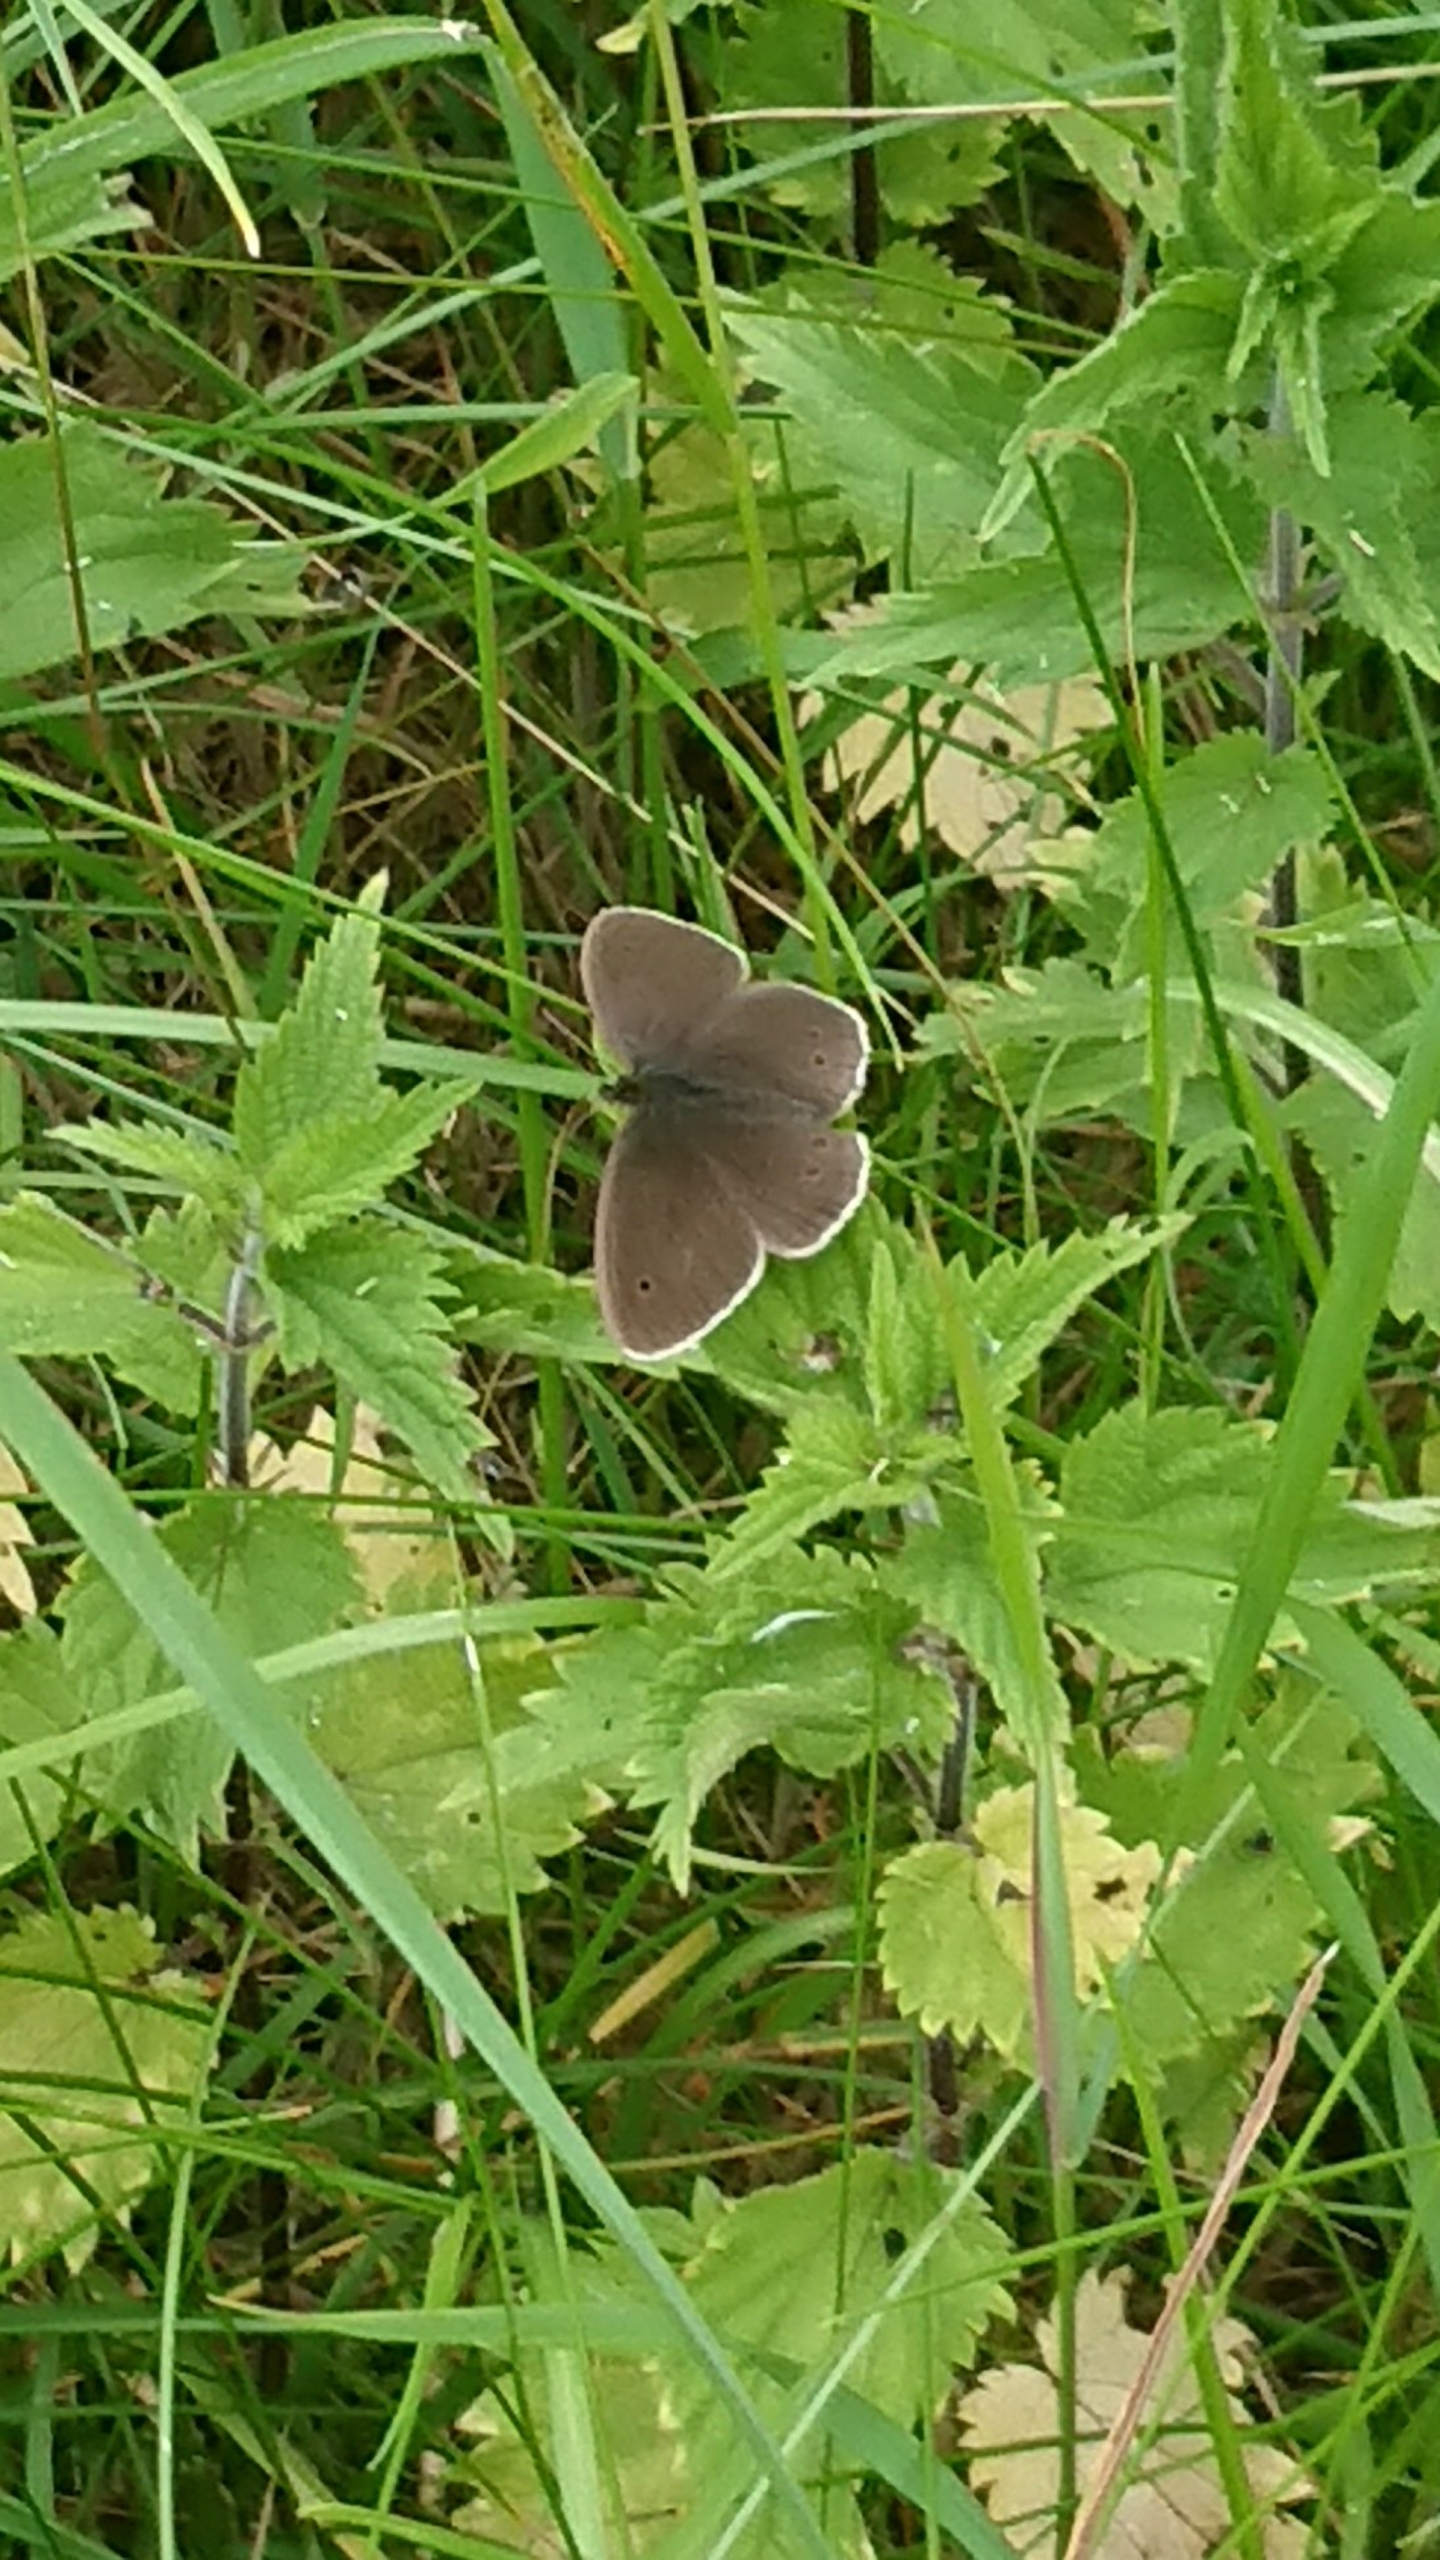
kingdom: Animalia
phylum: Arthropoda
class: Insecta
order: Lepidoptera
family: Nymphalidae
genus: Aphantopus
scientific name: Aphantopus hyperantus
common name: Engrandøje
